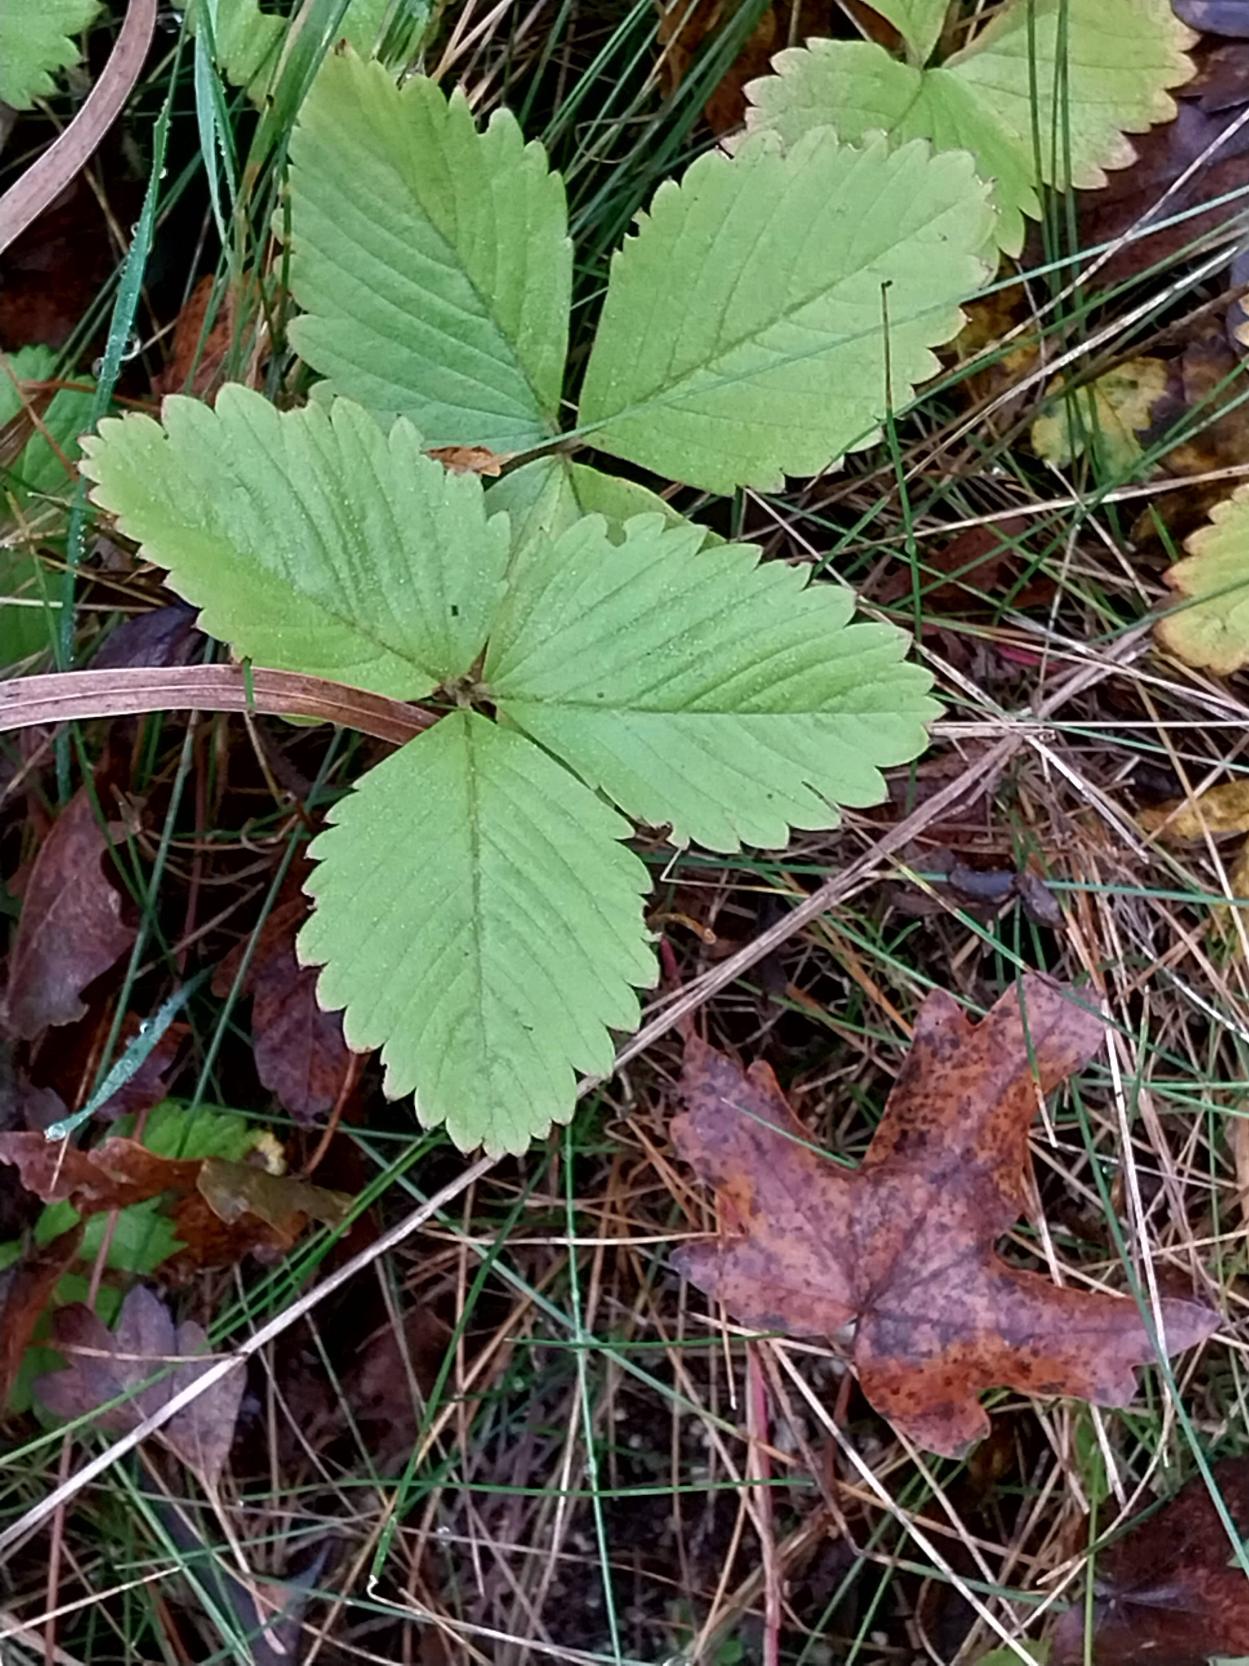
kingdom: Plantae
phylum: Tracheophyta
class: Magnoliopsida
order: Rosales
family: Rosaceae
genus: Fragaria
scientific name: Fragaria vesca
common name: Skov-jordbær
